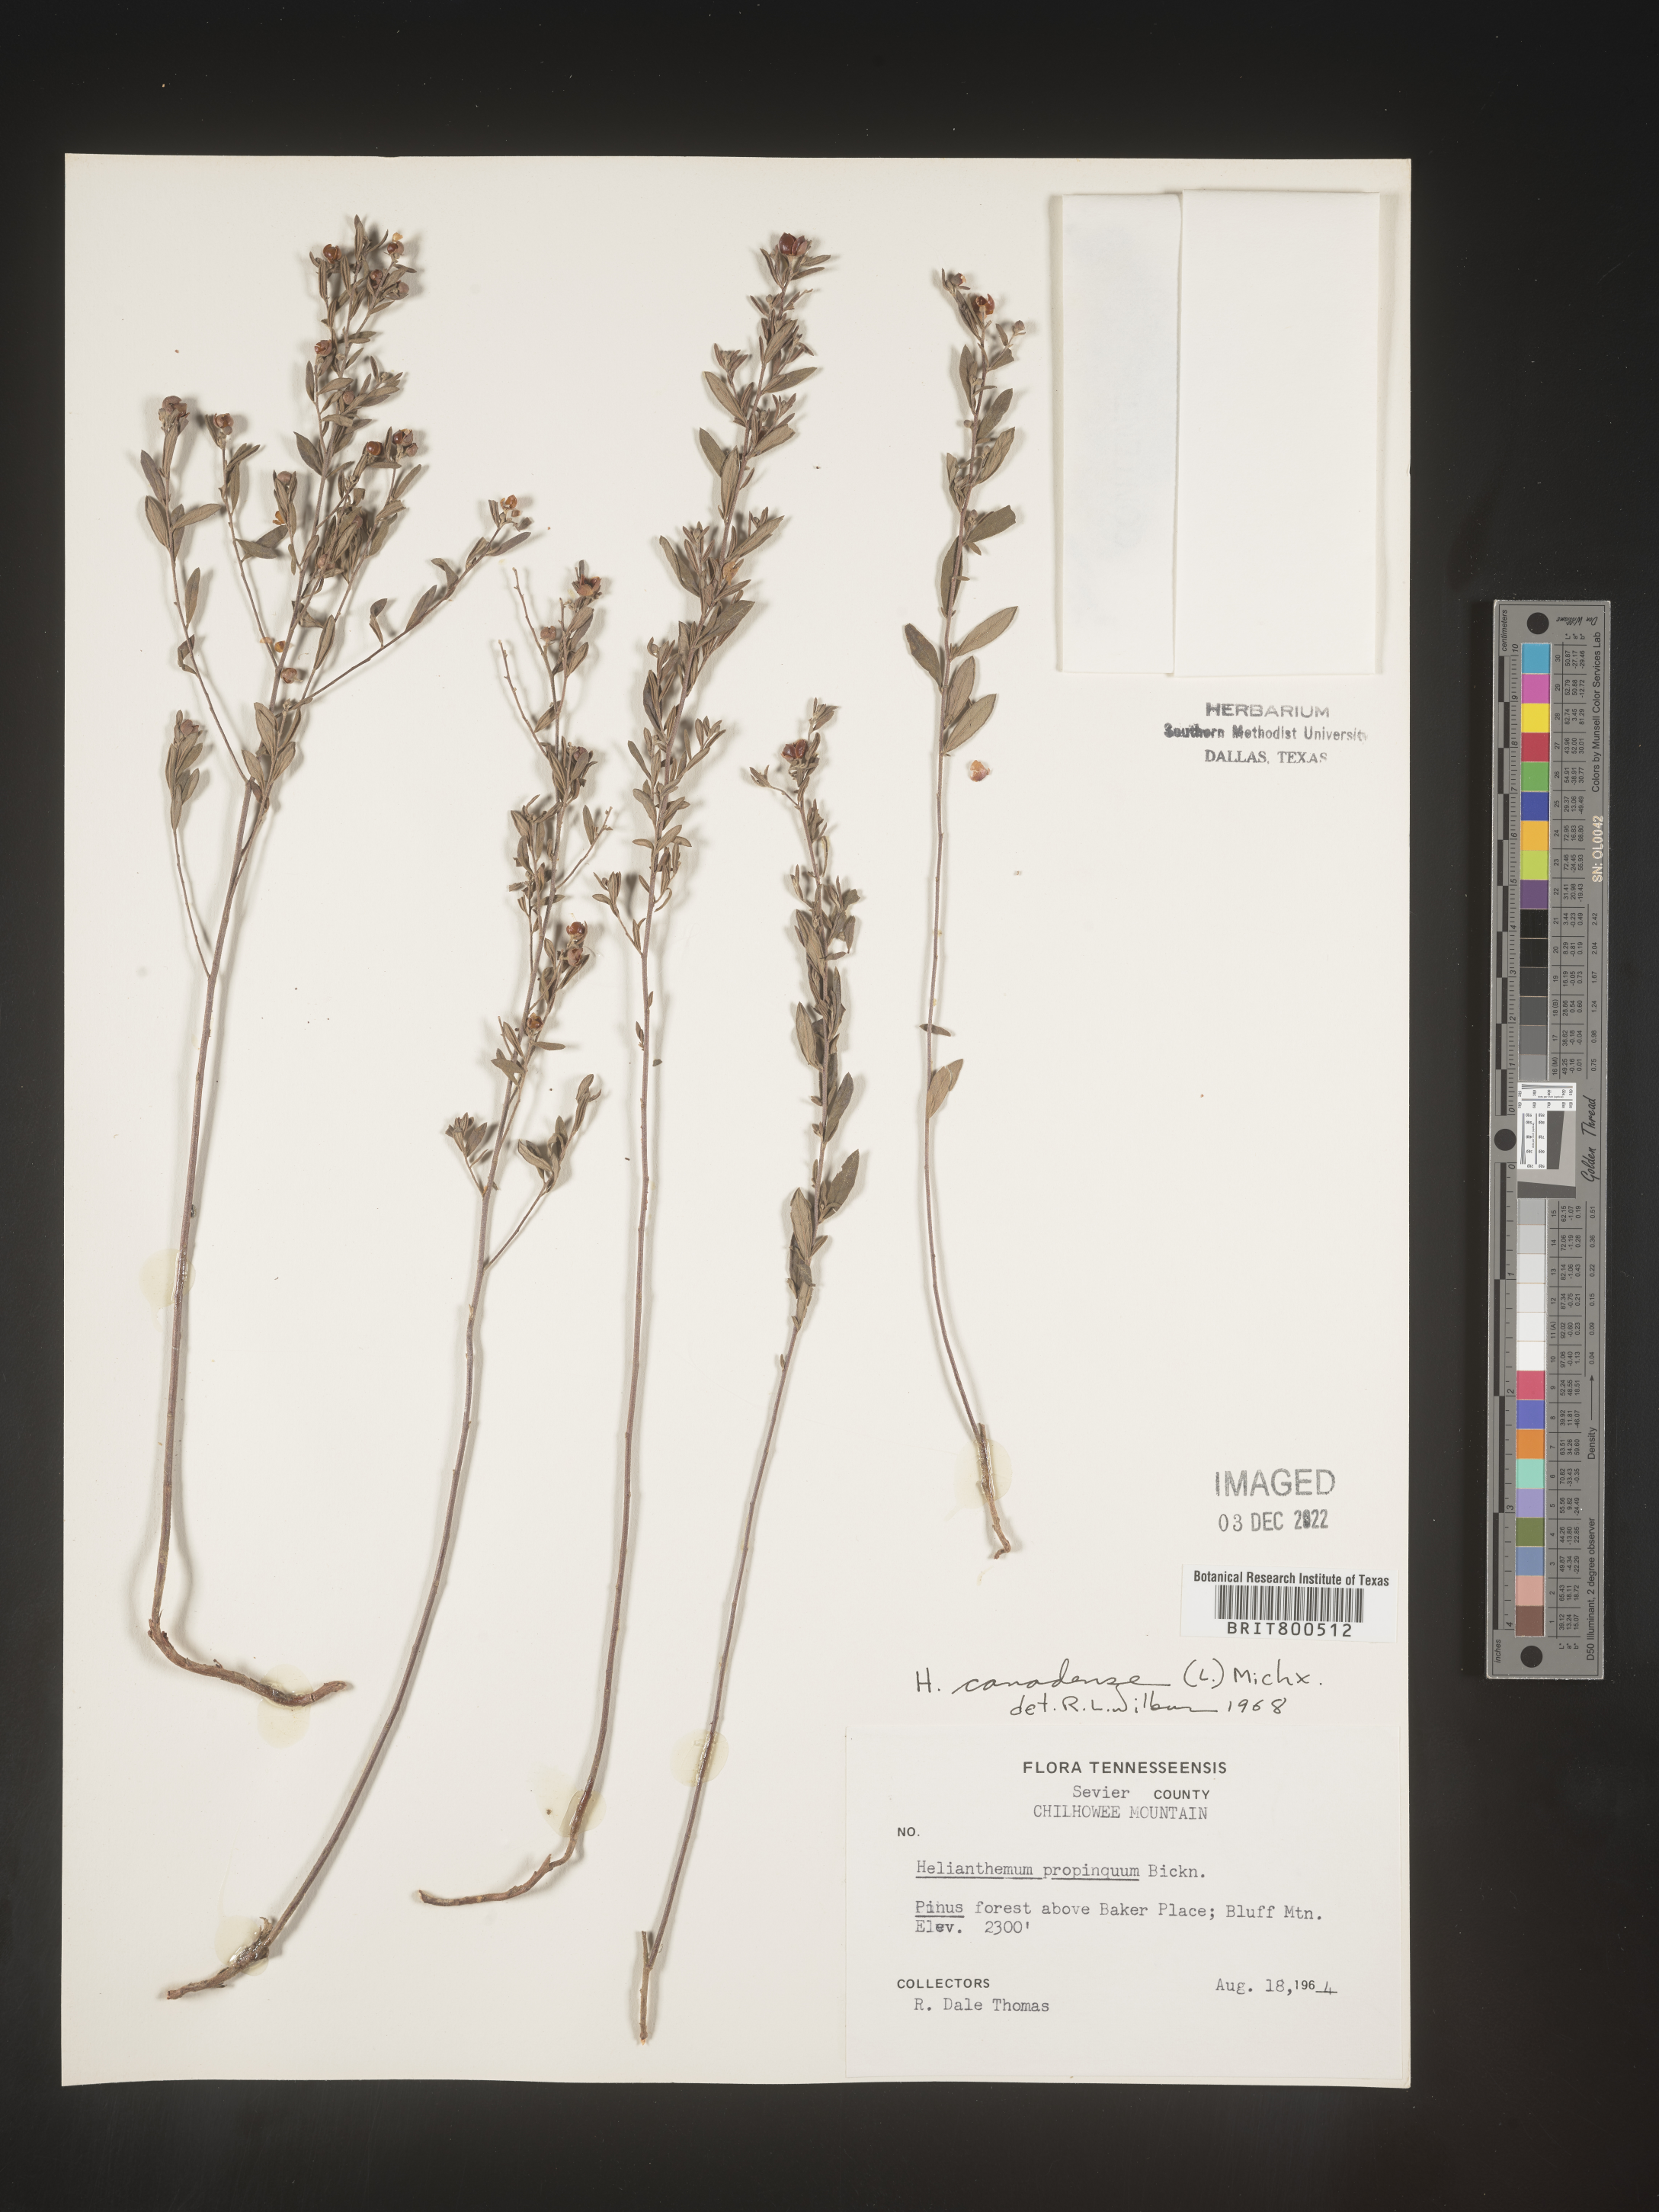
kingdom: Plantae
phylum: Tracheophyta
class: Magnoliopsida
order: Malvales
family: Cistaceae
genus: Crocanthemum
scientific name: Crocanthemum canadense
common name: Canada frostweed
